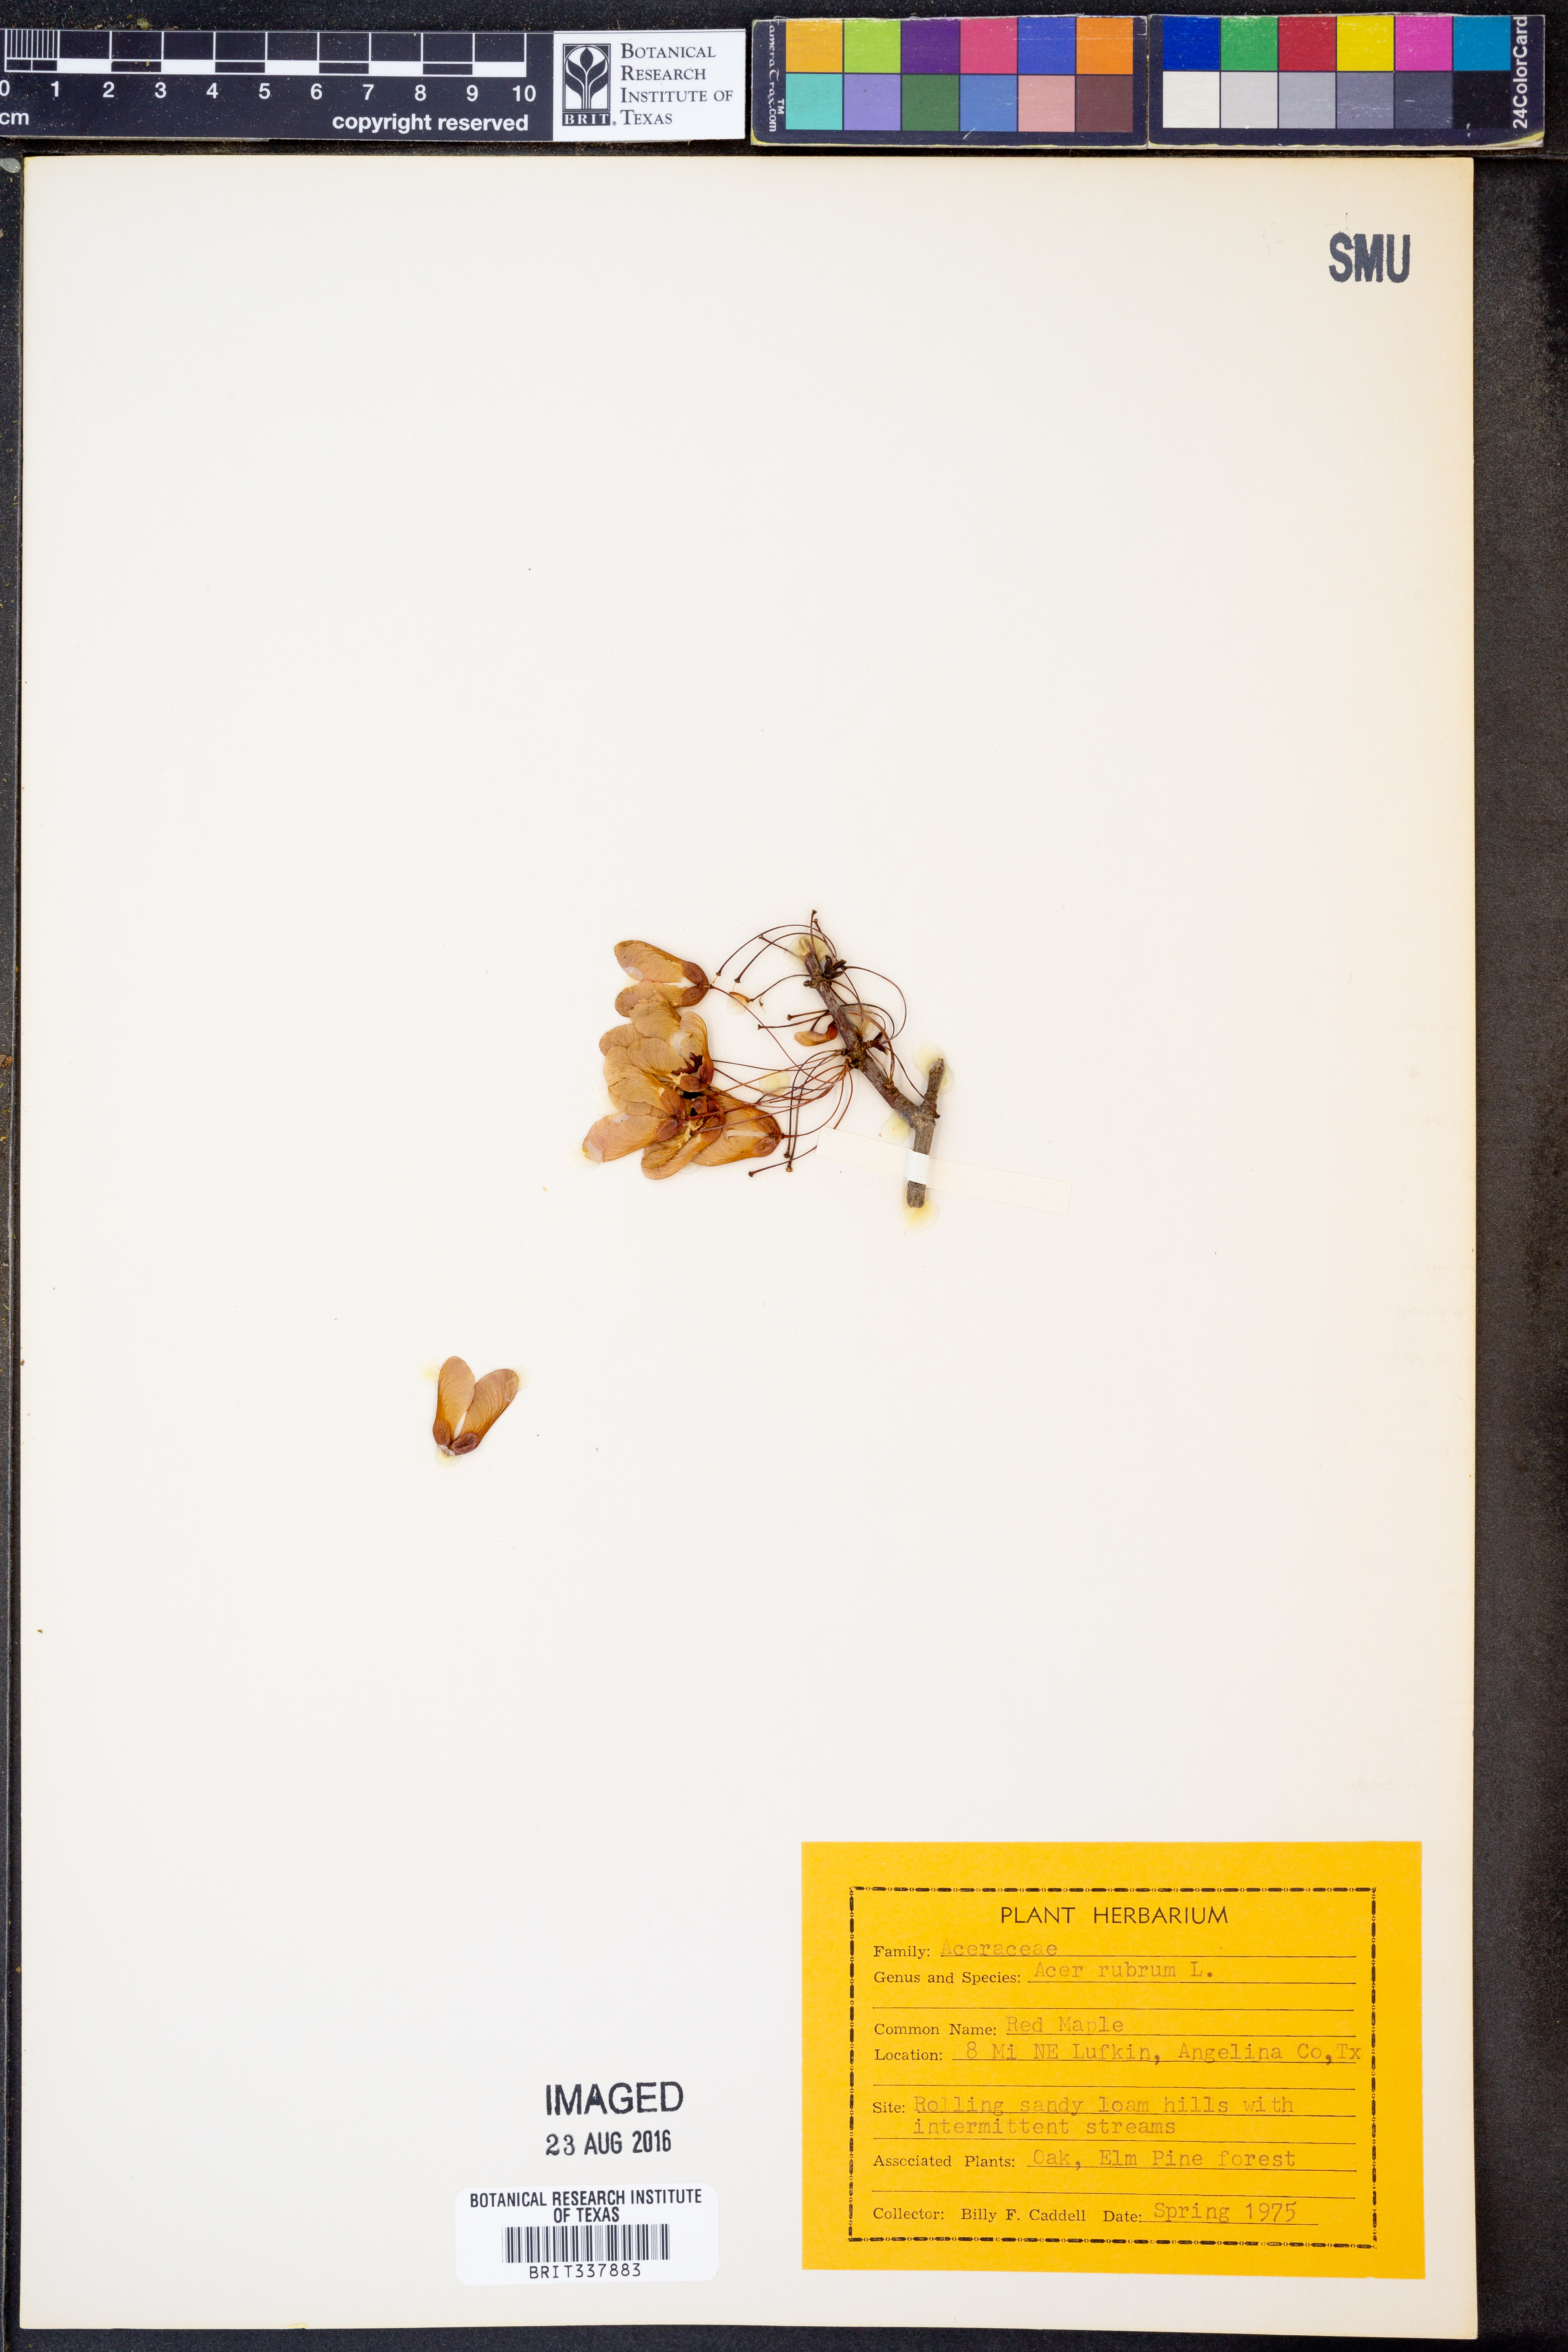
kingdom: Plantae
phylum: Tracheophyta
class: Magnoliopsida
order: Sapindales
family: Sapindaceae
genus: Acer
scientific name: Acer rubrum
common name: Red maple
